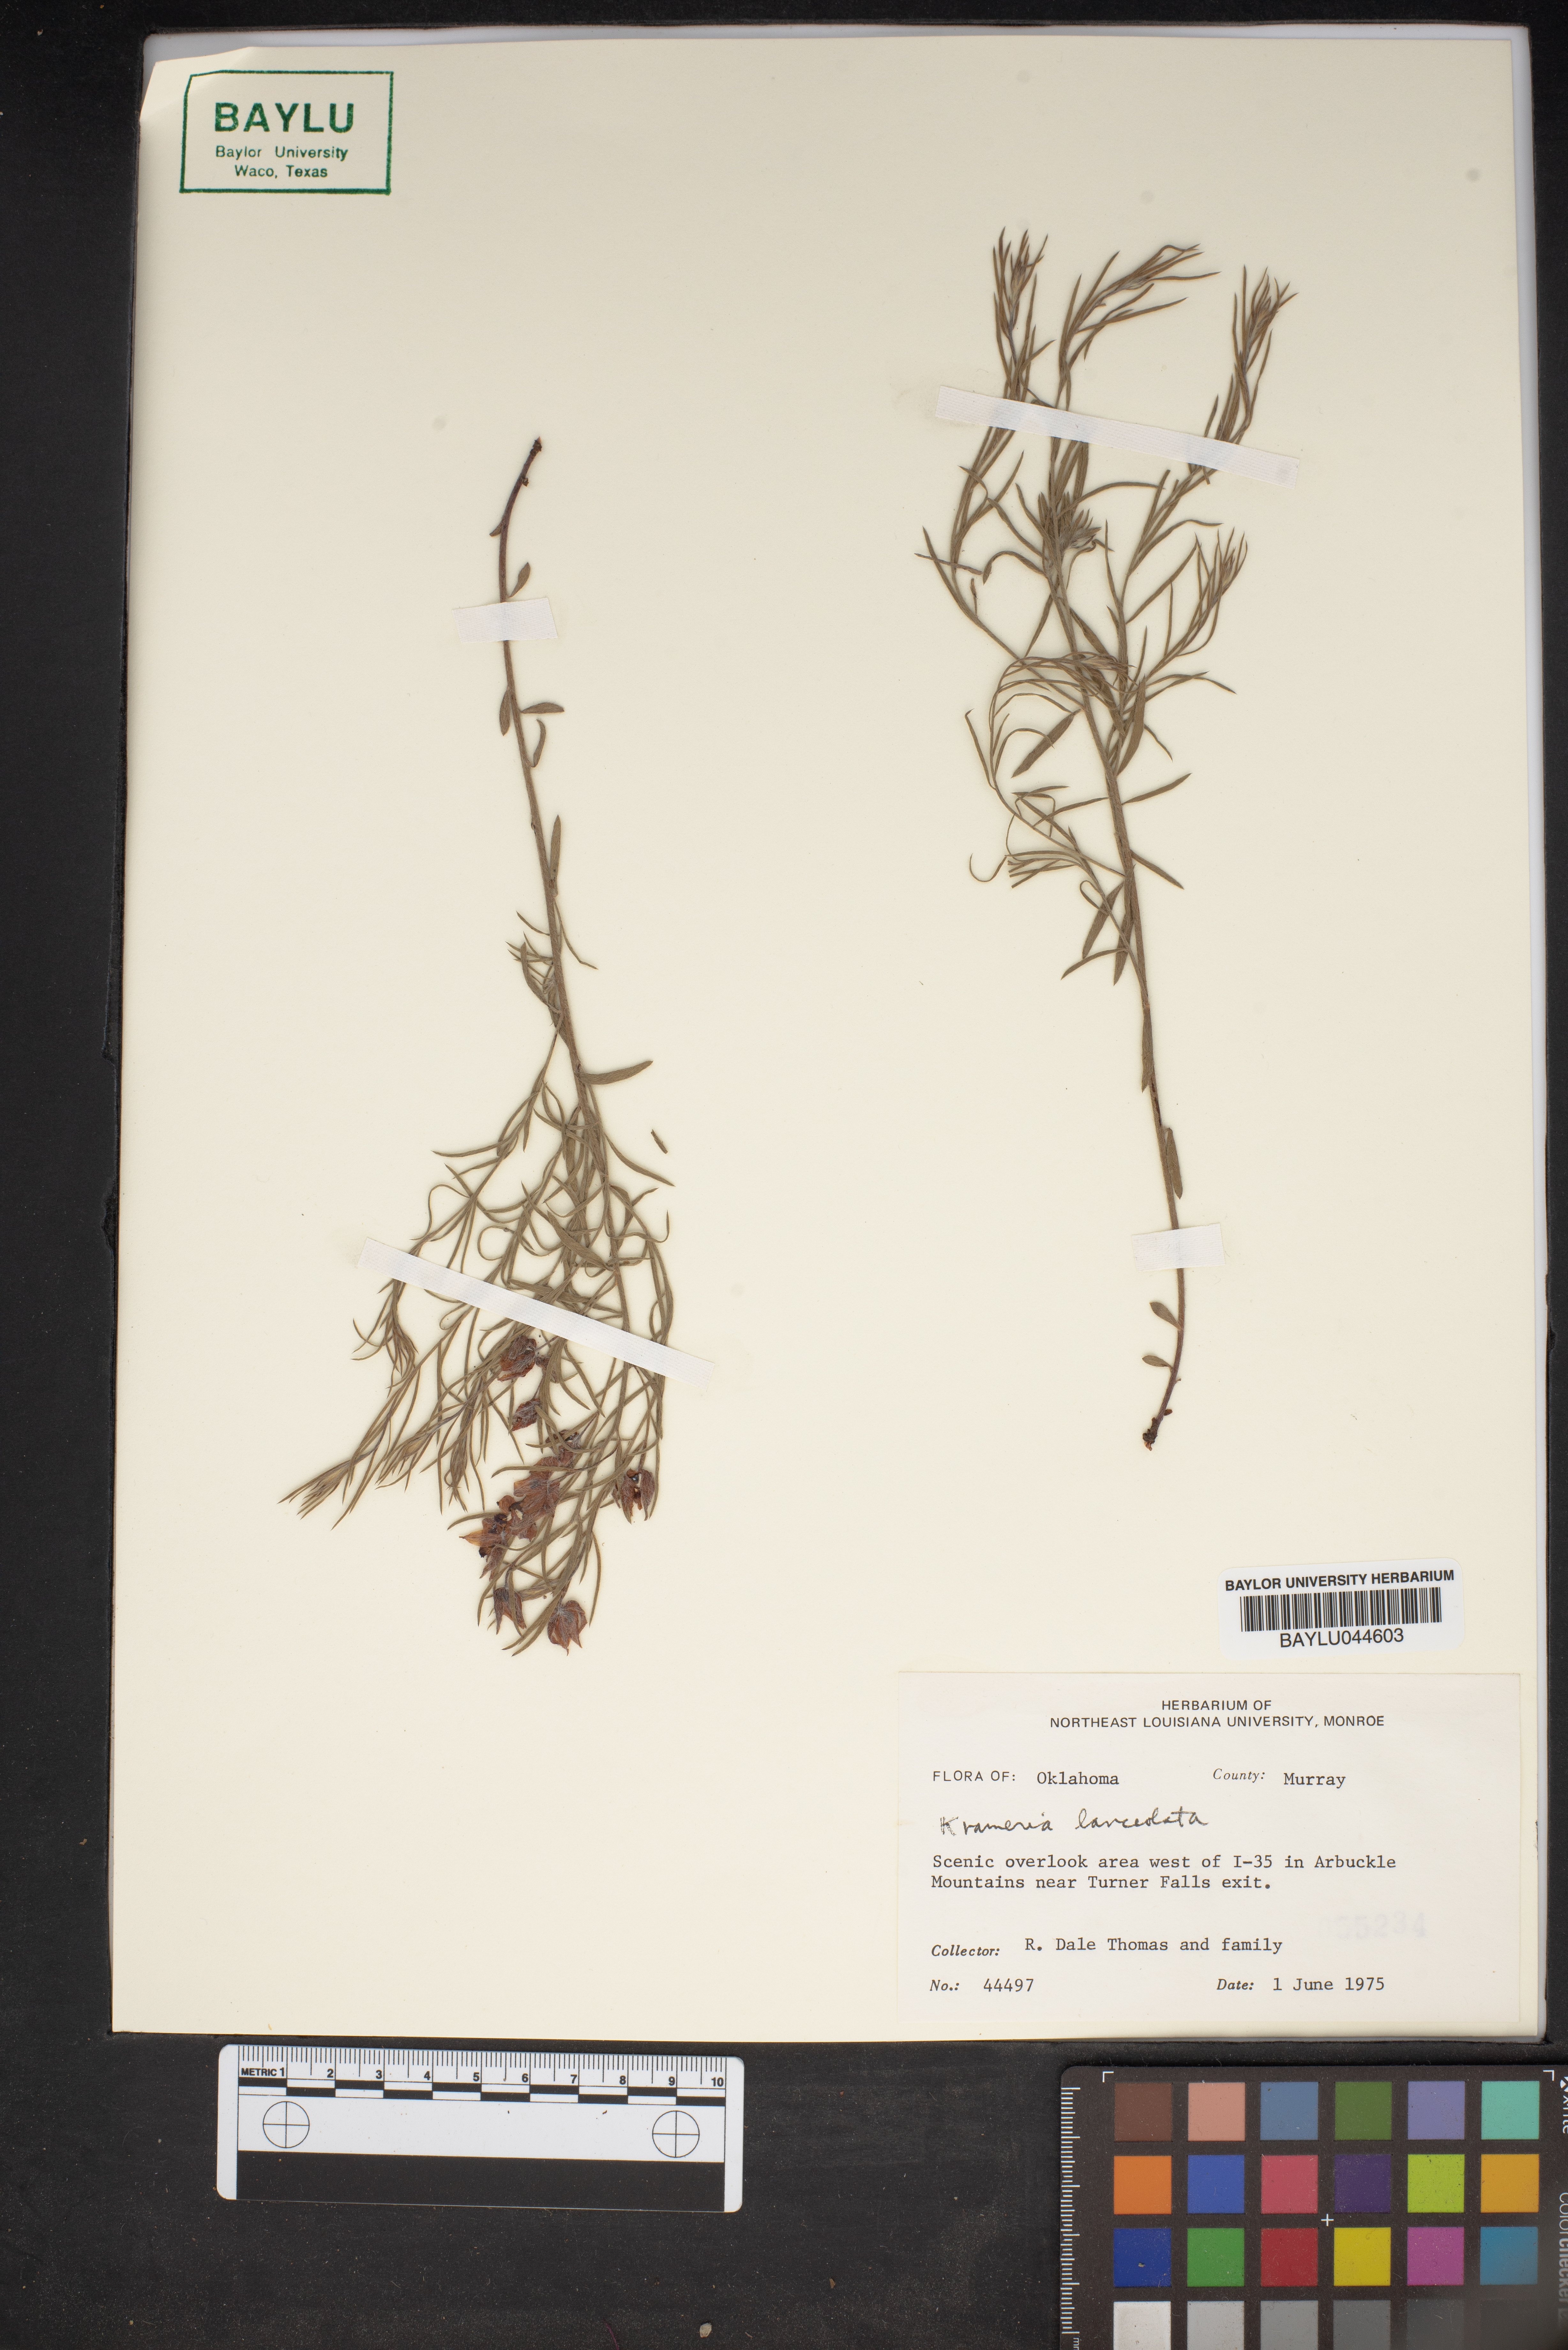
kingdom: Plantae
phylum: Tracheophyta
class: Magnoliopsida
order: Zygophyllales
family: Krameriaceae
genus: Krameria
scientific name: Krameria lanceolata
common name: Ratany
